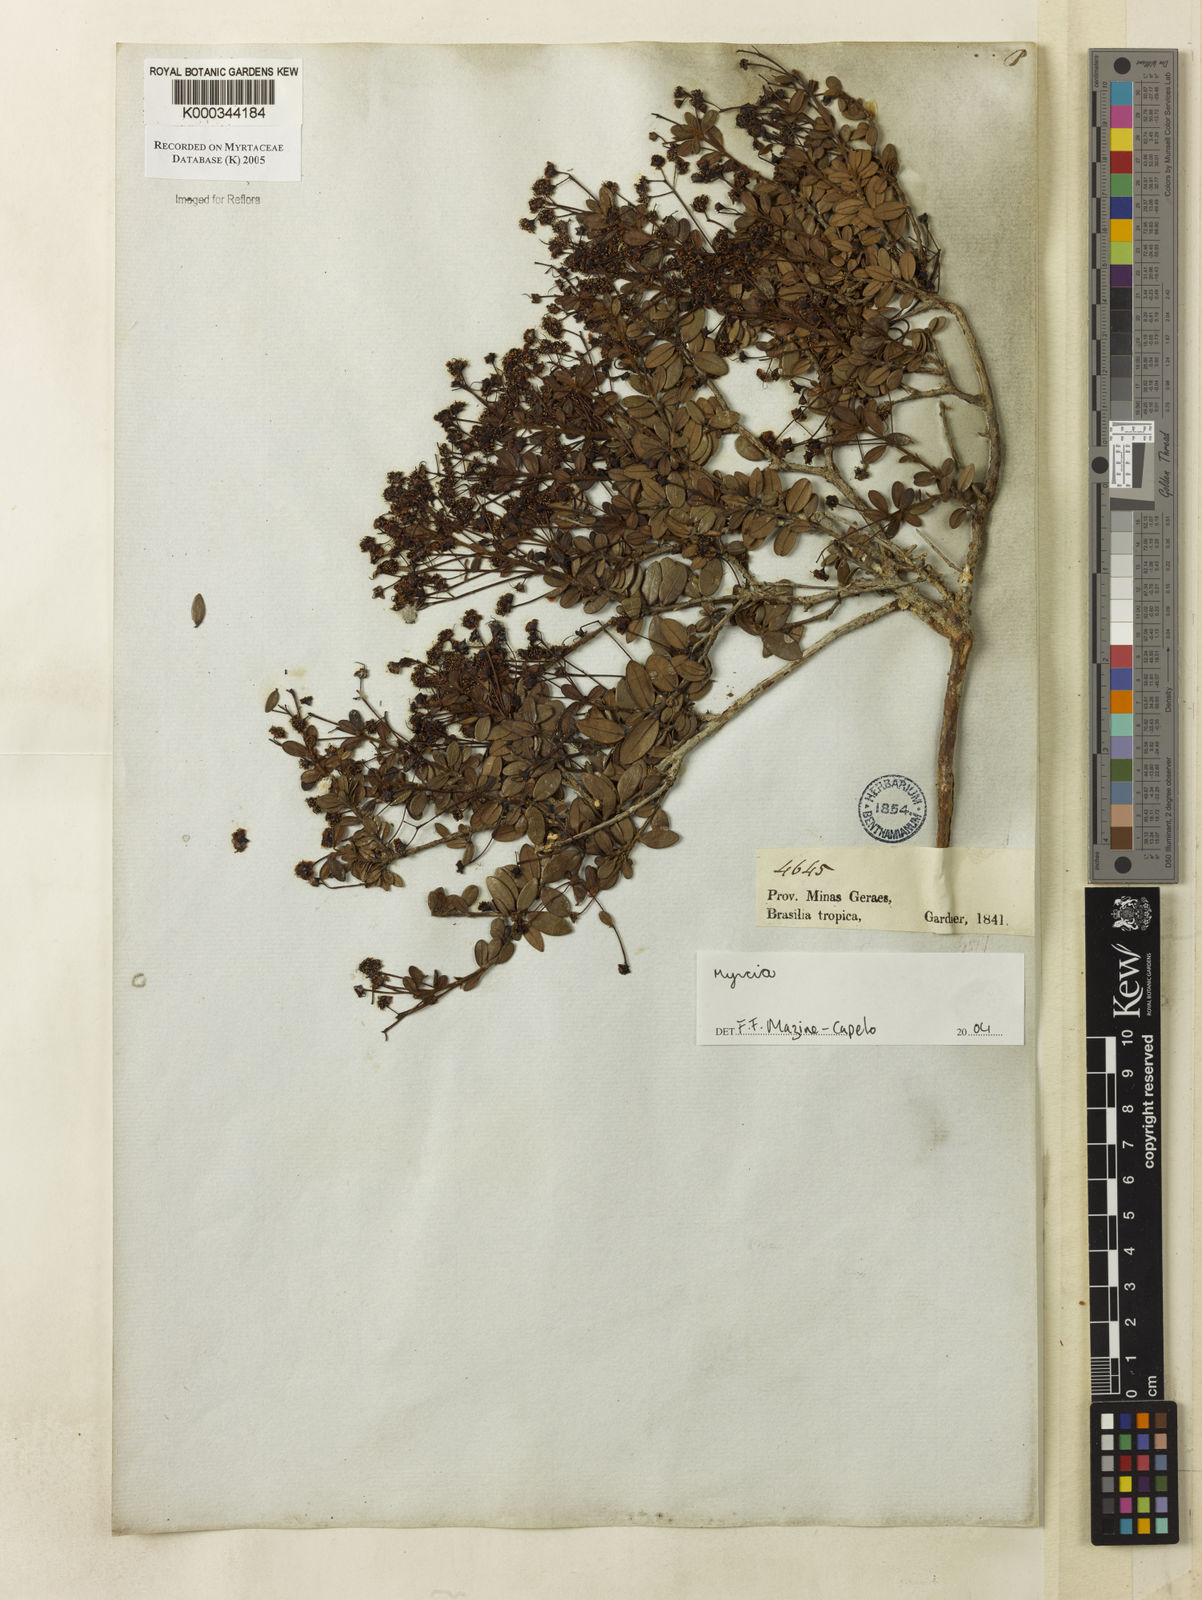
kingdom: Plantae
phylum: Tracheophyta
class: Magnoliopsida
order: Myrtales
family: Myrtaceae
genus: Myrcia
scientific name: Myrcia rimosa
